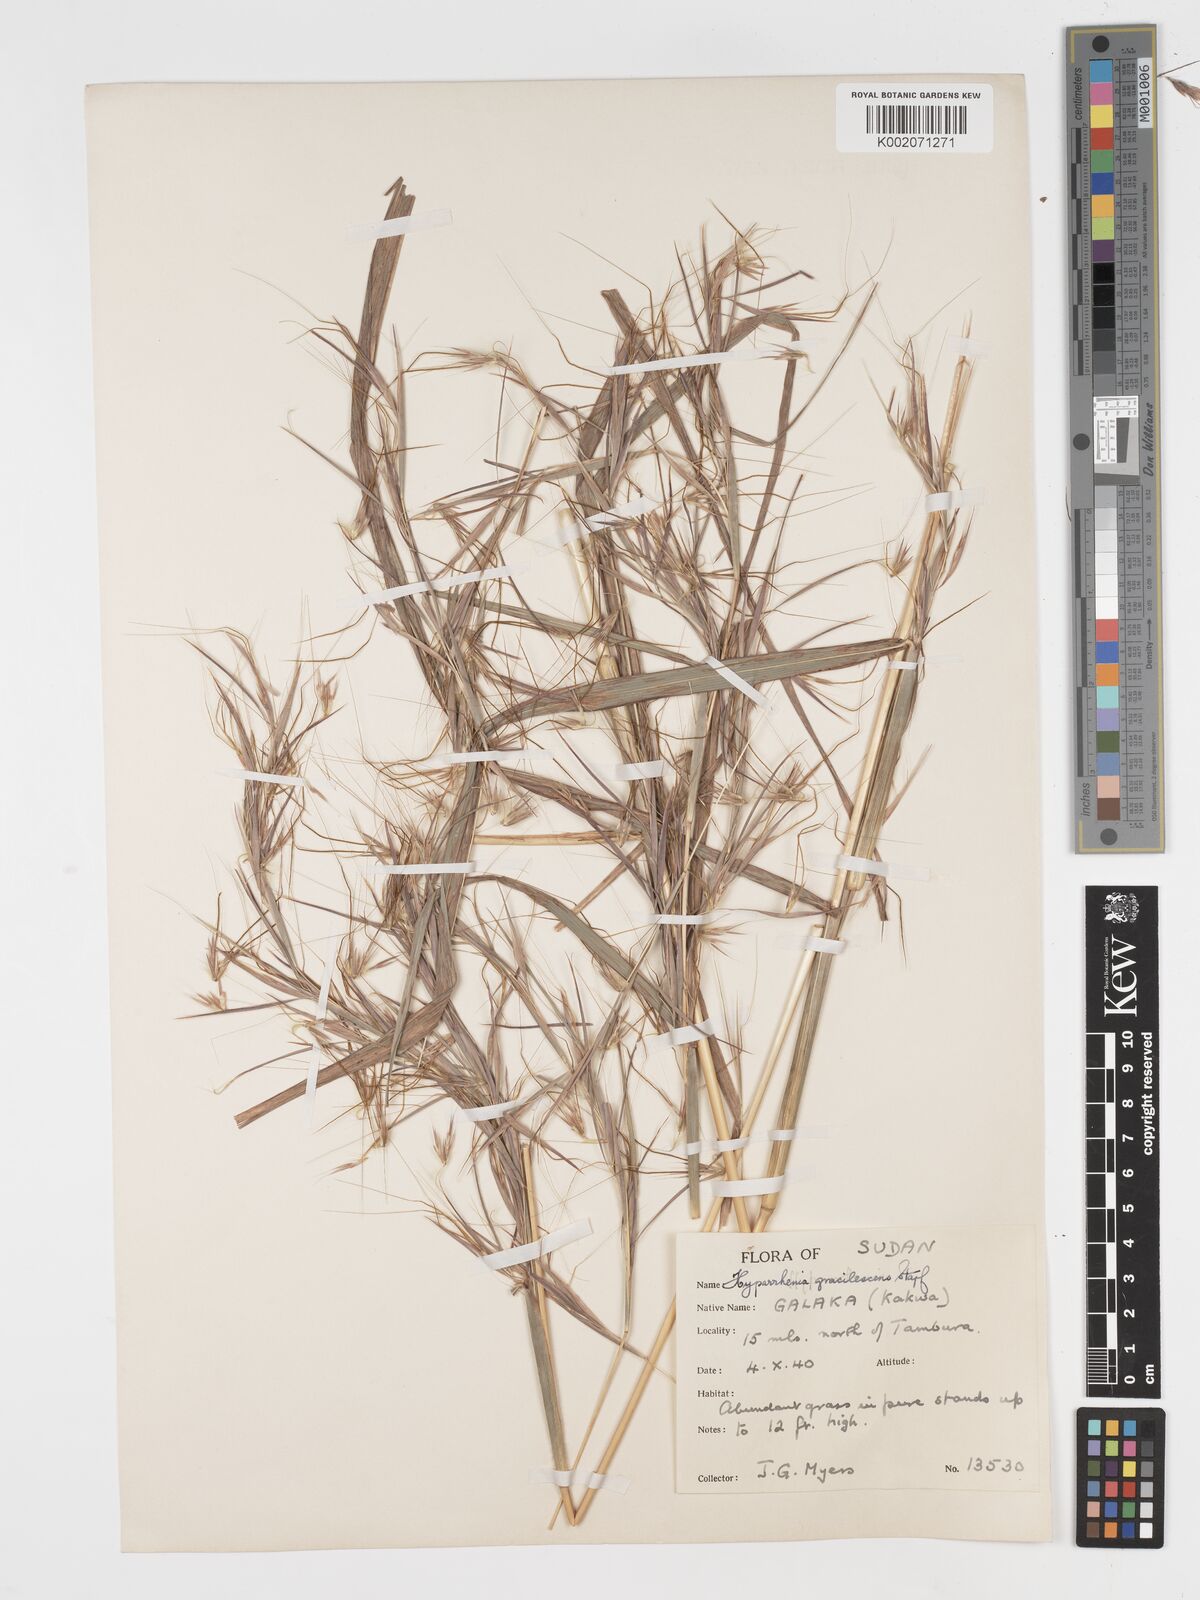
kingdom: Plantae
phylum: Tracheophyta
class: Liliopsida
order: Poales
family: Poaceae
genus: Hyparrhenia
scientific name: Hyparrhenia welwitschii
